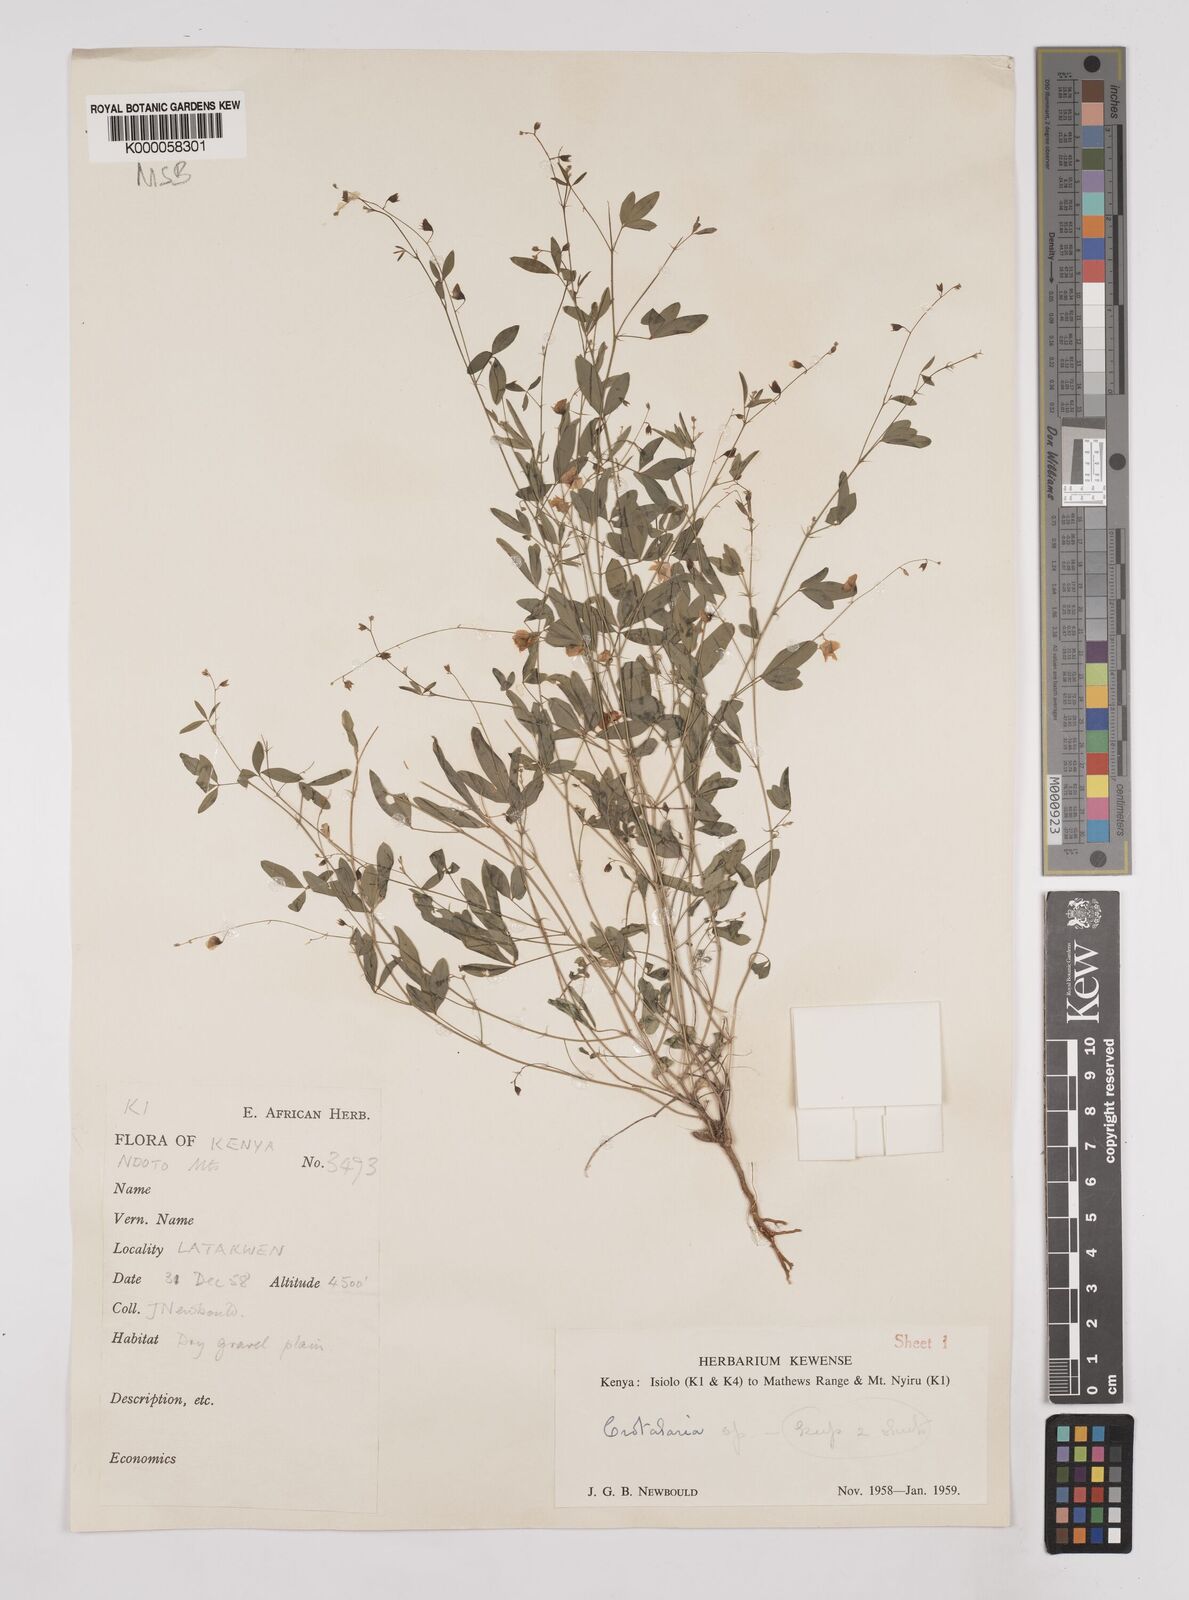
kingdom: Plantae
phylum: Tracheophyta
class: Magnoliopsida
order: Fabales
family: Fabaceae
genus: Crotalaria
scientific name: Crotalaria leptocarpa
